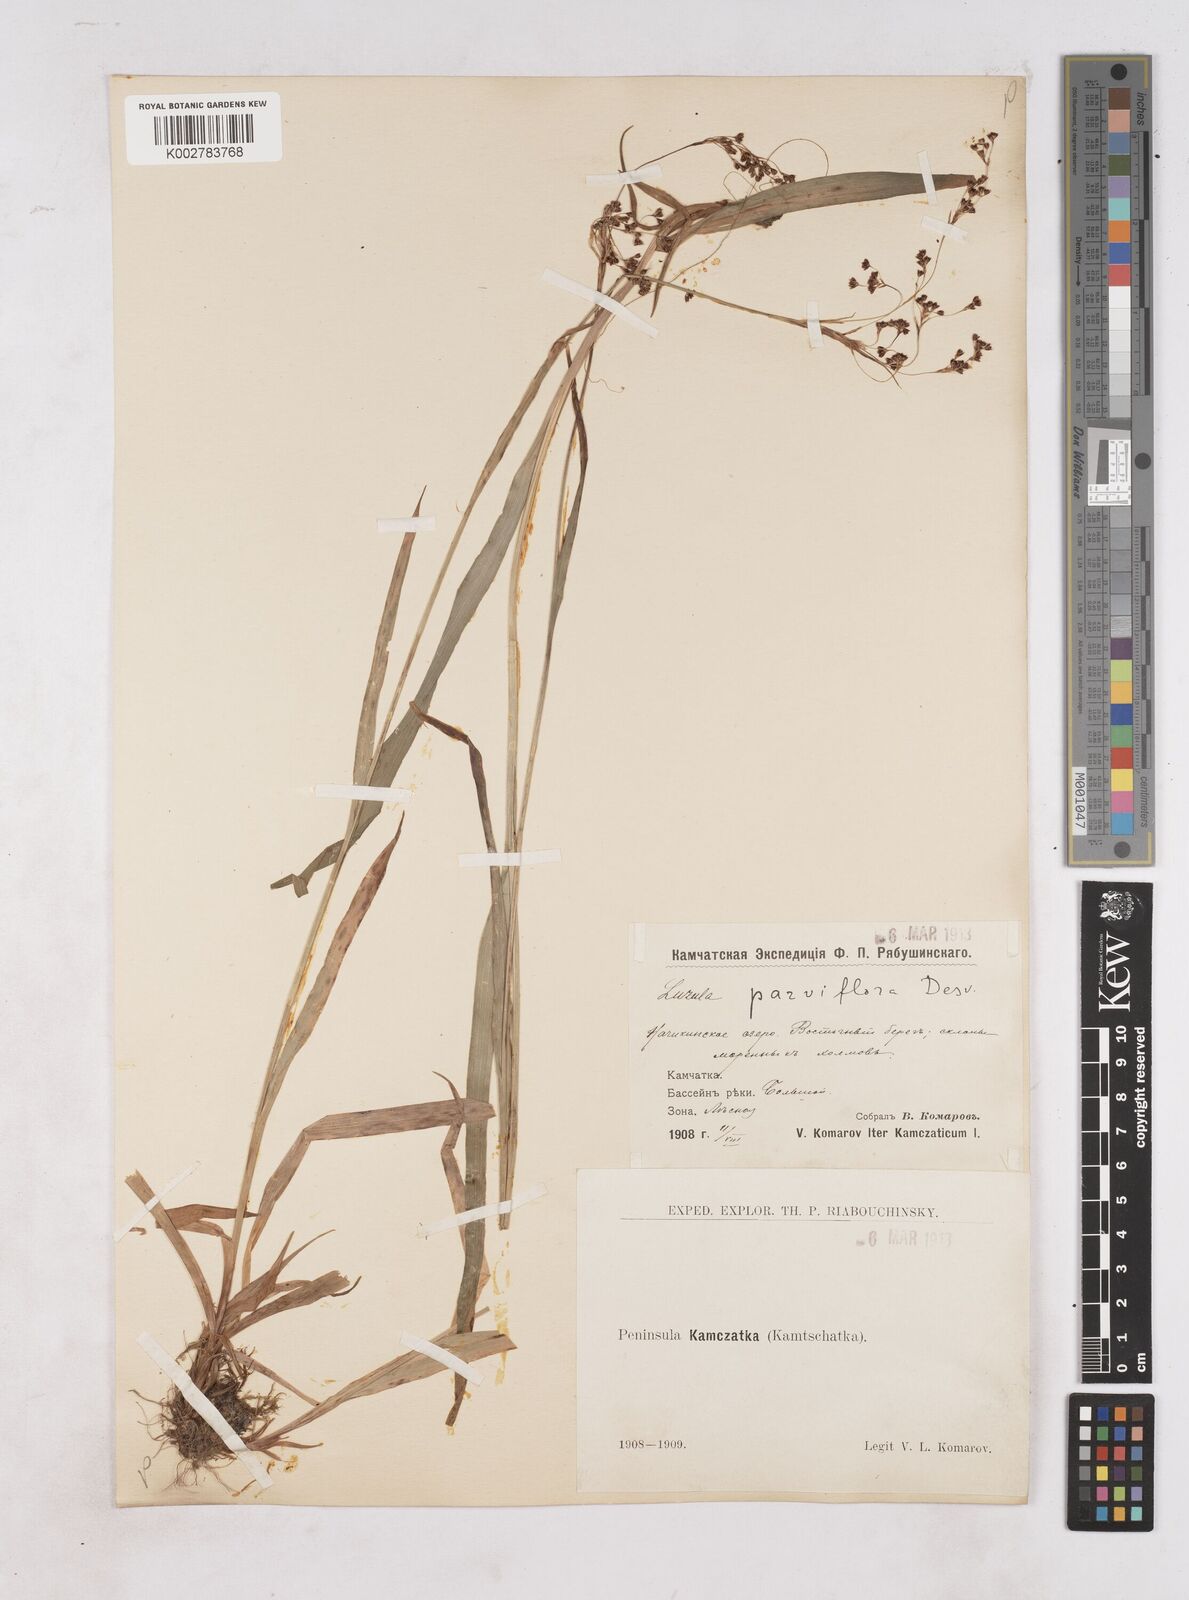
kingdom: Plantae
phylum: Tracheophyta
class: Liliopsida
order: Poales
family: Juncaceae
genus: Luzula
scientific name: Luzula parviflora
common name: Millet woodrush
